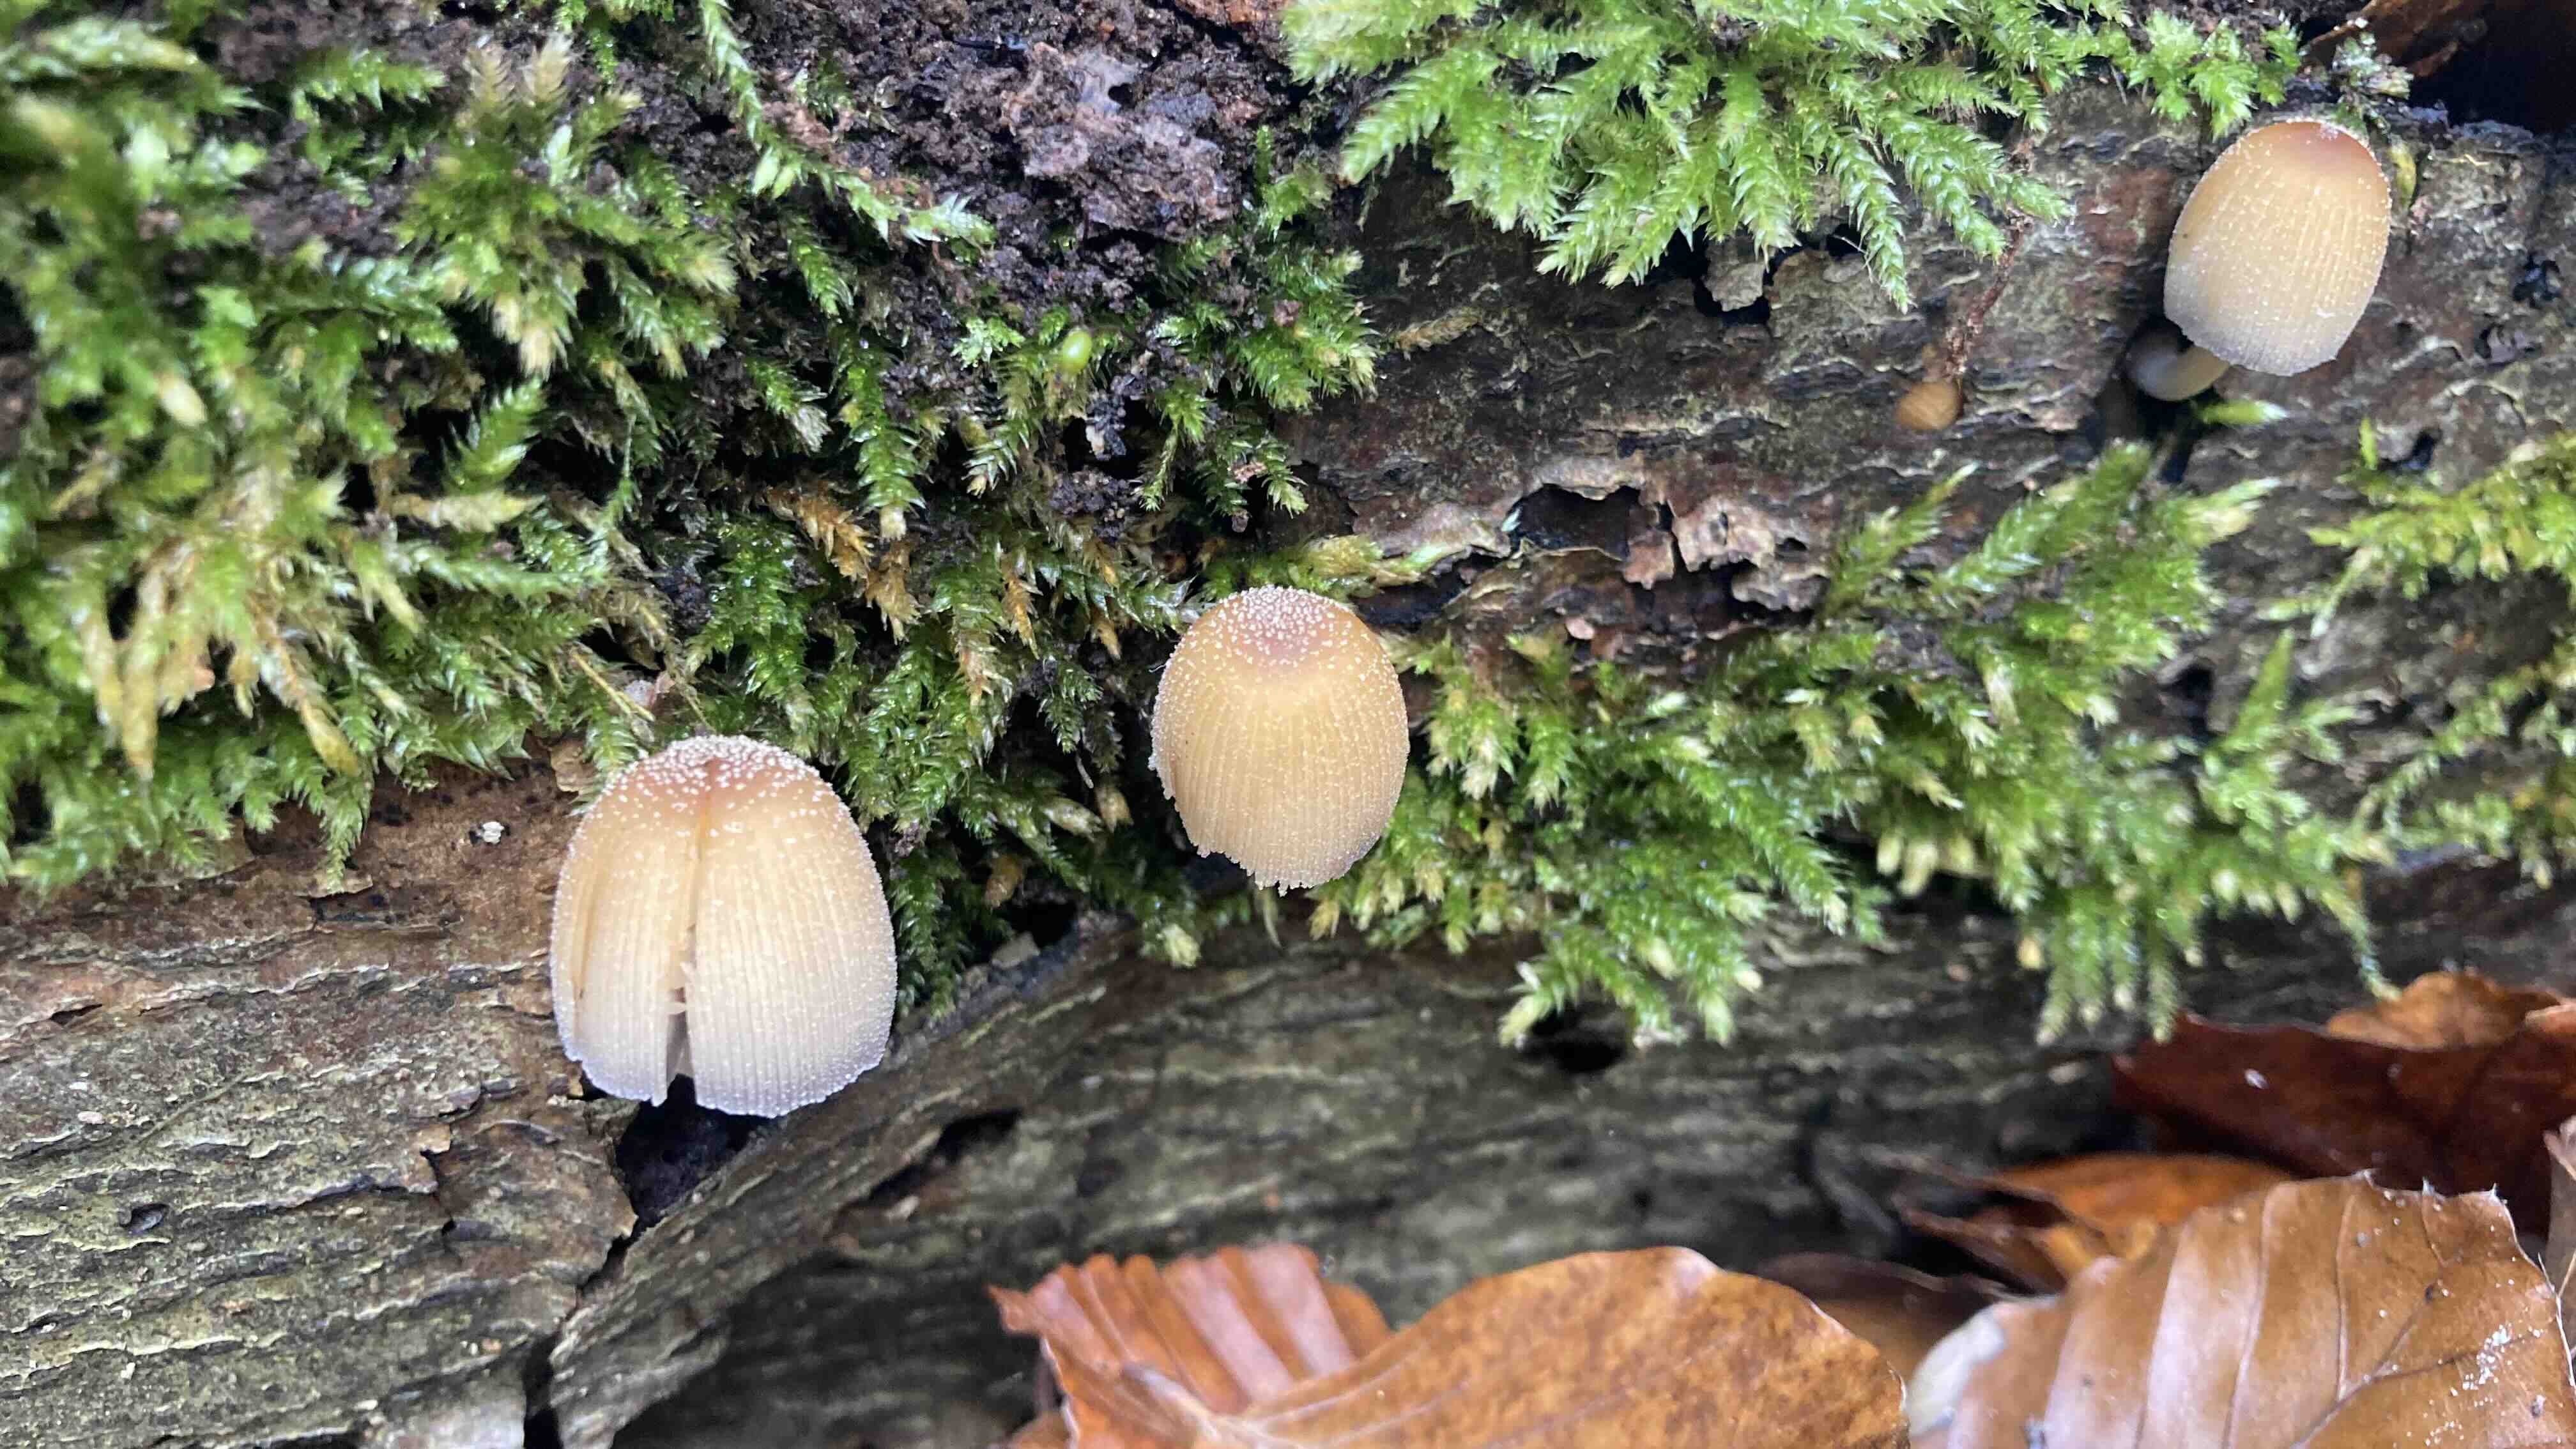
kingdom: Fungi
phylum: Basidiomycota
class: Agaricomycetes
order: Agaricales
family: Psathyrellaceae
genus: Coprinellus
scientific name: Coprinellus micaceus
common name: glimmer-blækhat
